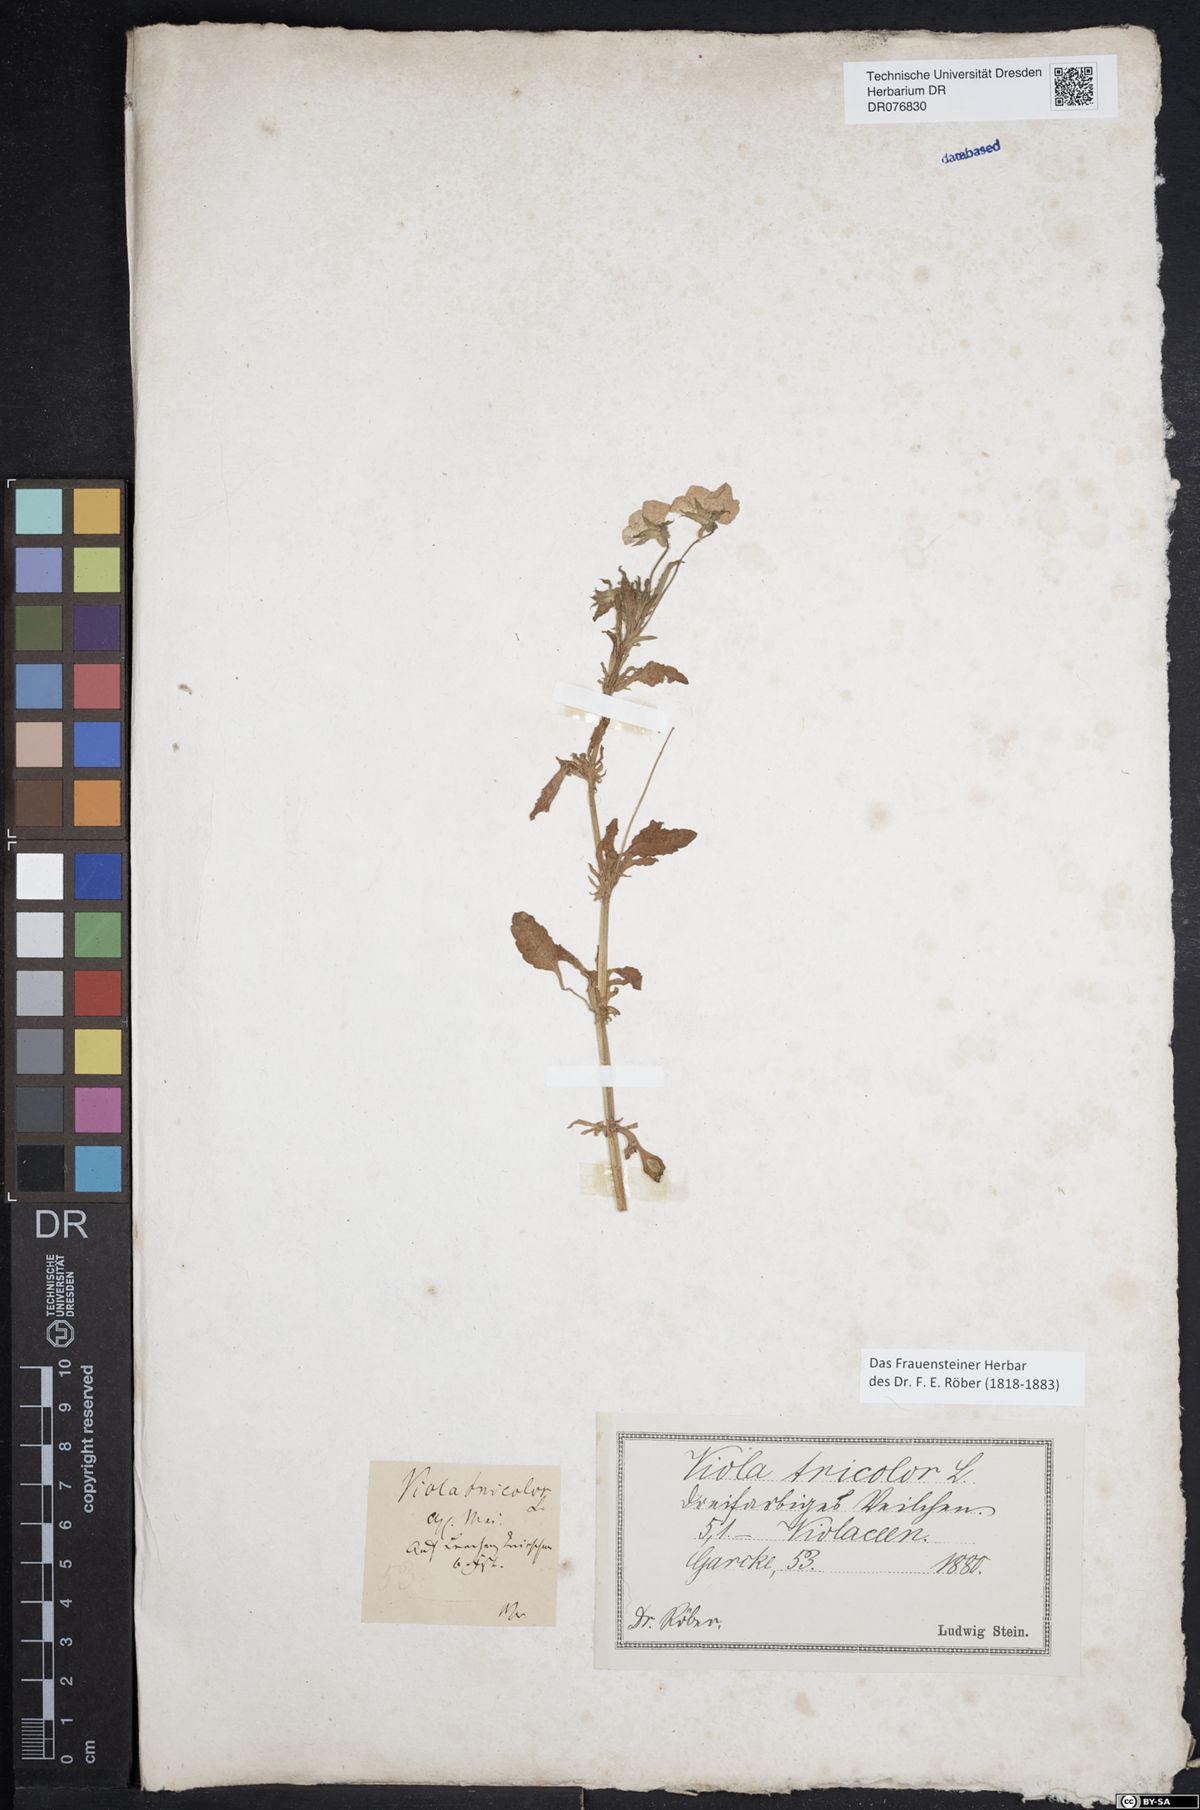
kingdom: Plantae
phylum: Tracheophyta
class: Magnoliopsida
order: Malpighiales
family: Violaceae
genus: Viola
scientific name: Viola tricolor
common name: Pansy
